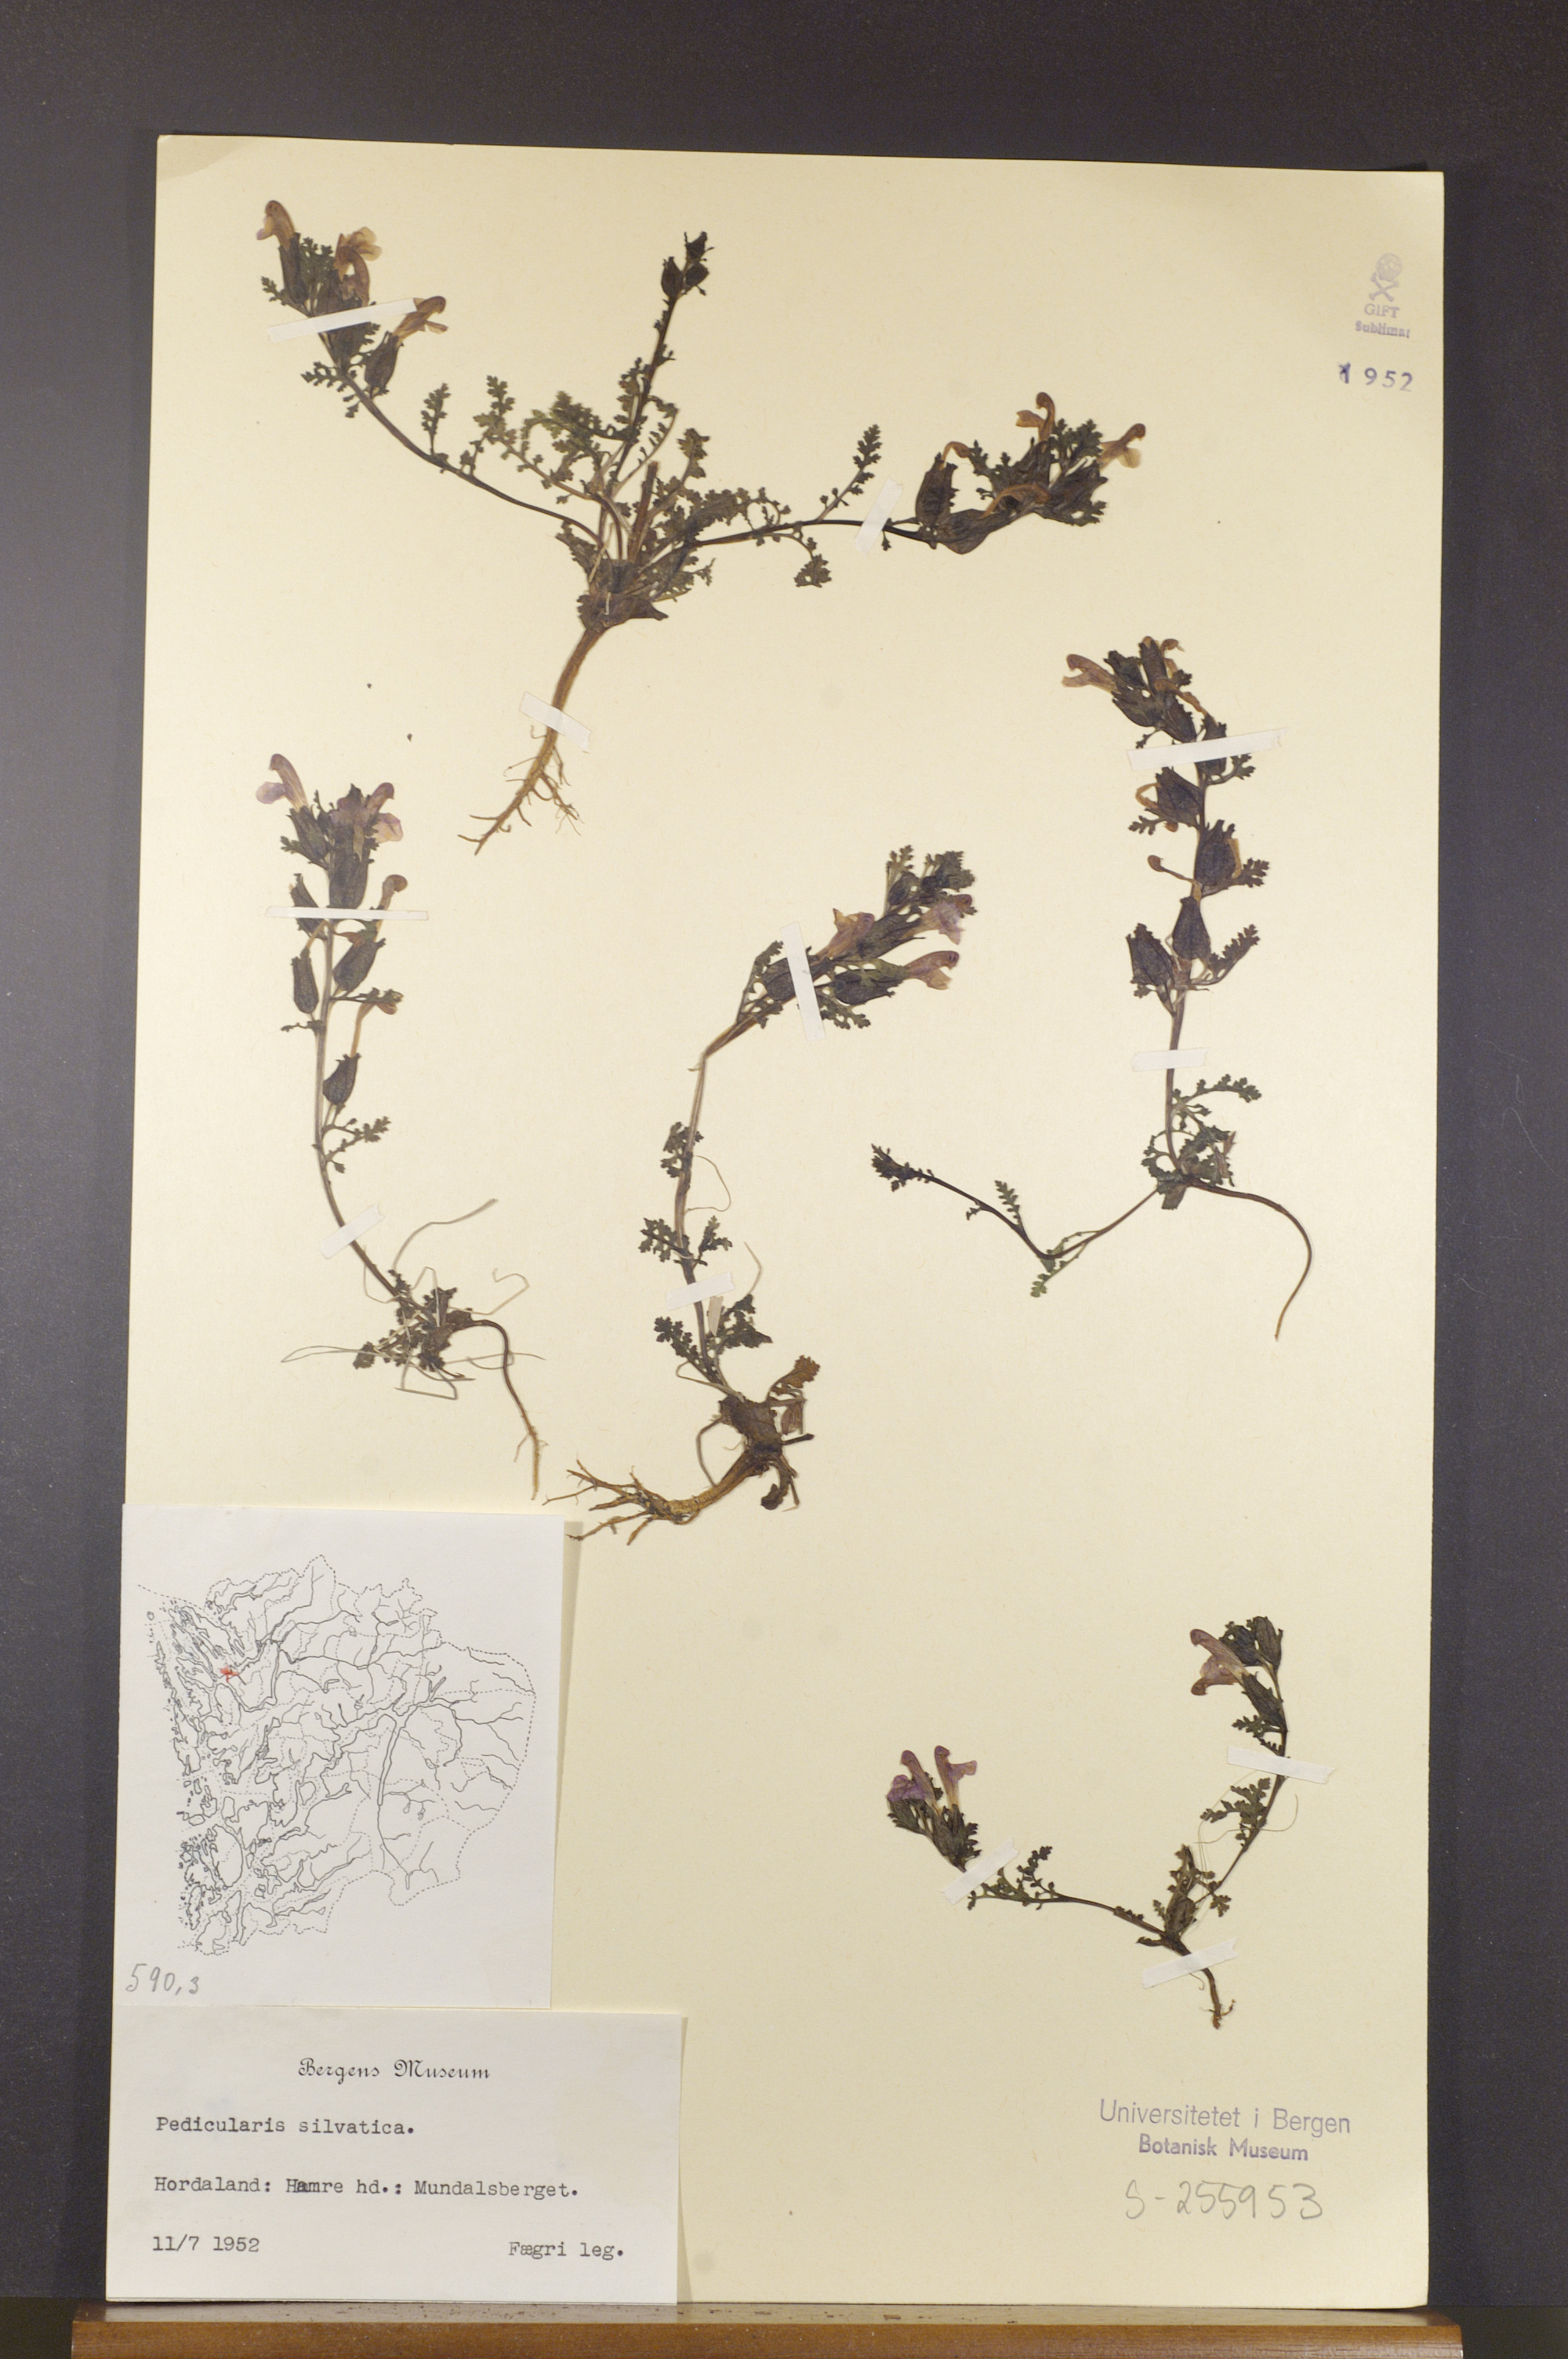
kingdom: Plantae
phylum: Tracheophyta
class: Magnoliopsida
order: Lamiales
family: Orobanchaceae
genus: Pedicularis
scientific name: Pedicularis sylvatica
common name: Lousewort
